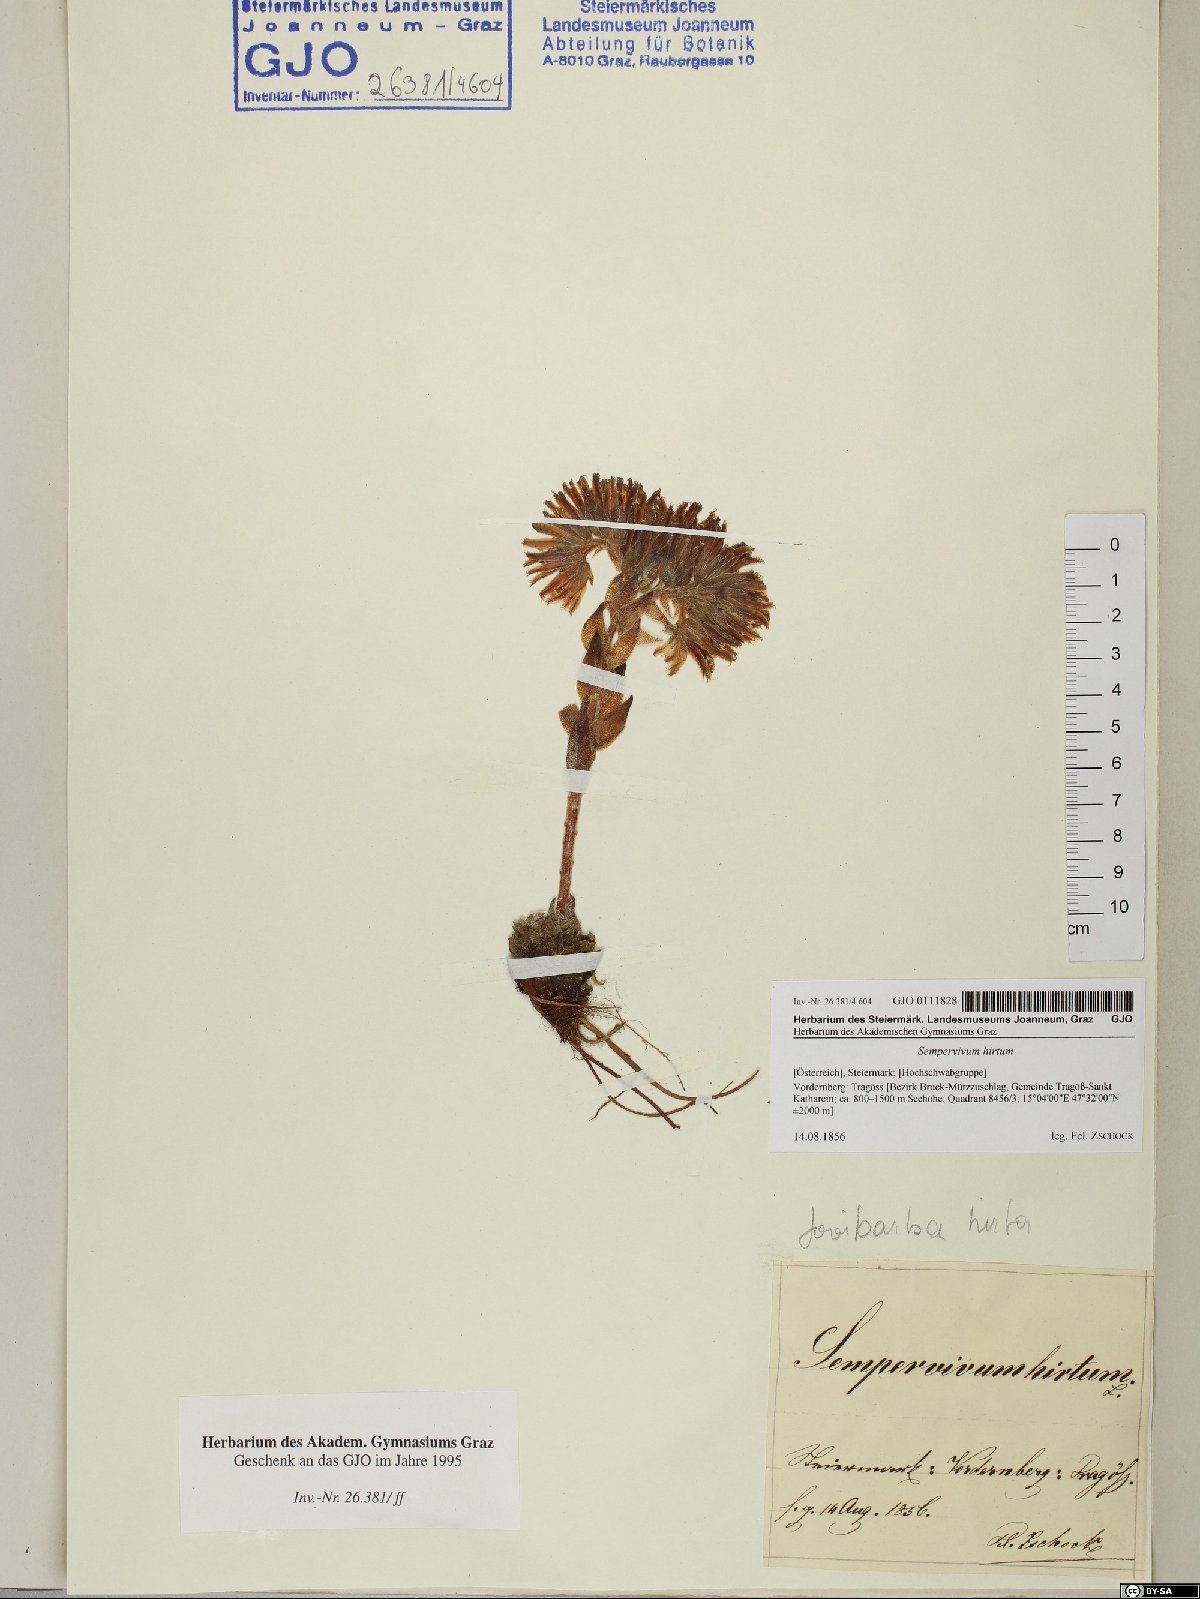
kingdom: Plantae
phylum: Tracheophyta
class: Magnoliopsida
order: Saxifragales
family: Crassulaceae
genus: Sempervivum
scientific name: Sempervivum globiferum
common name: Rolling hen-and-chicks
